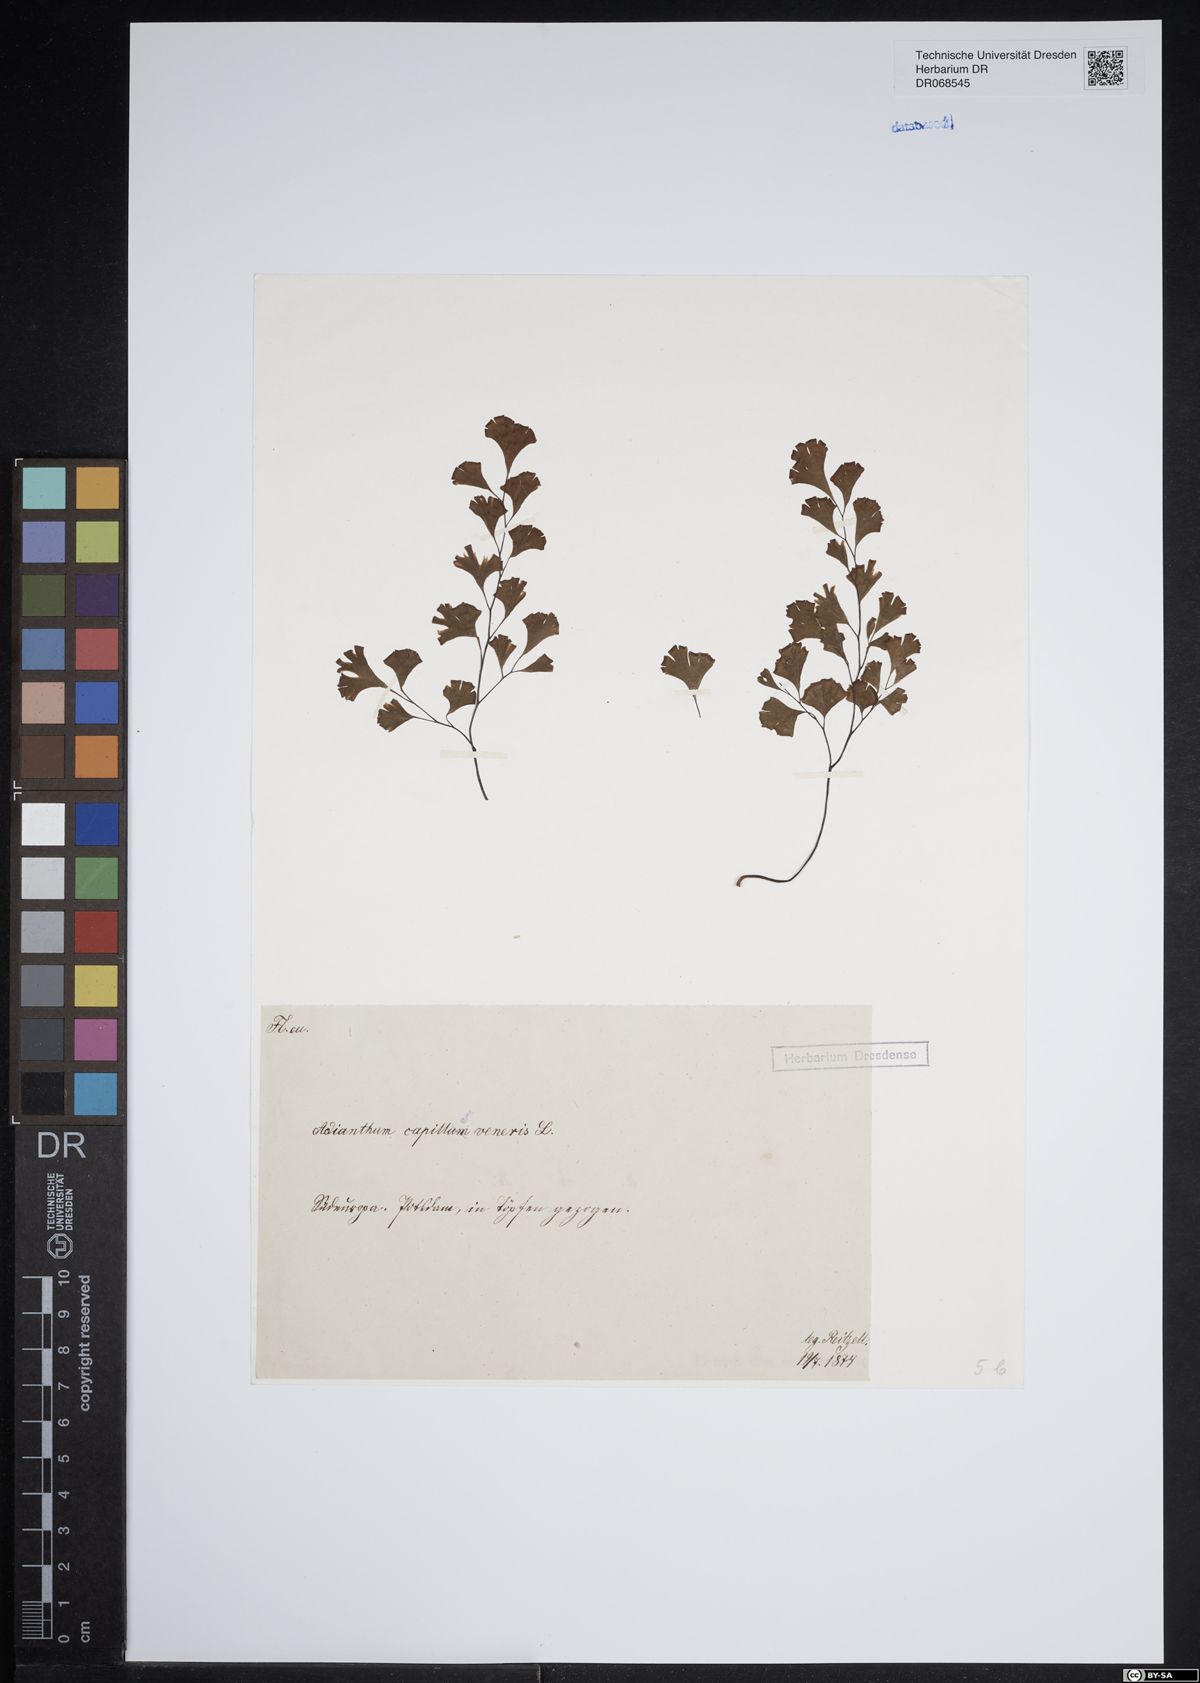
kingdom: Plantae
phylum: Tracheophyta
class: Polypodiopsida
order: Polypodiales
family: Pteridaceae
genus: Adiantum
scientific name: Adiantum capillus-veneris
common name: Maidenhair fern
